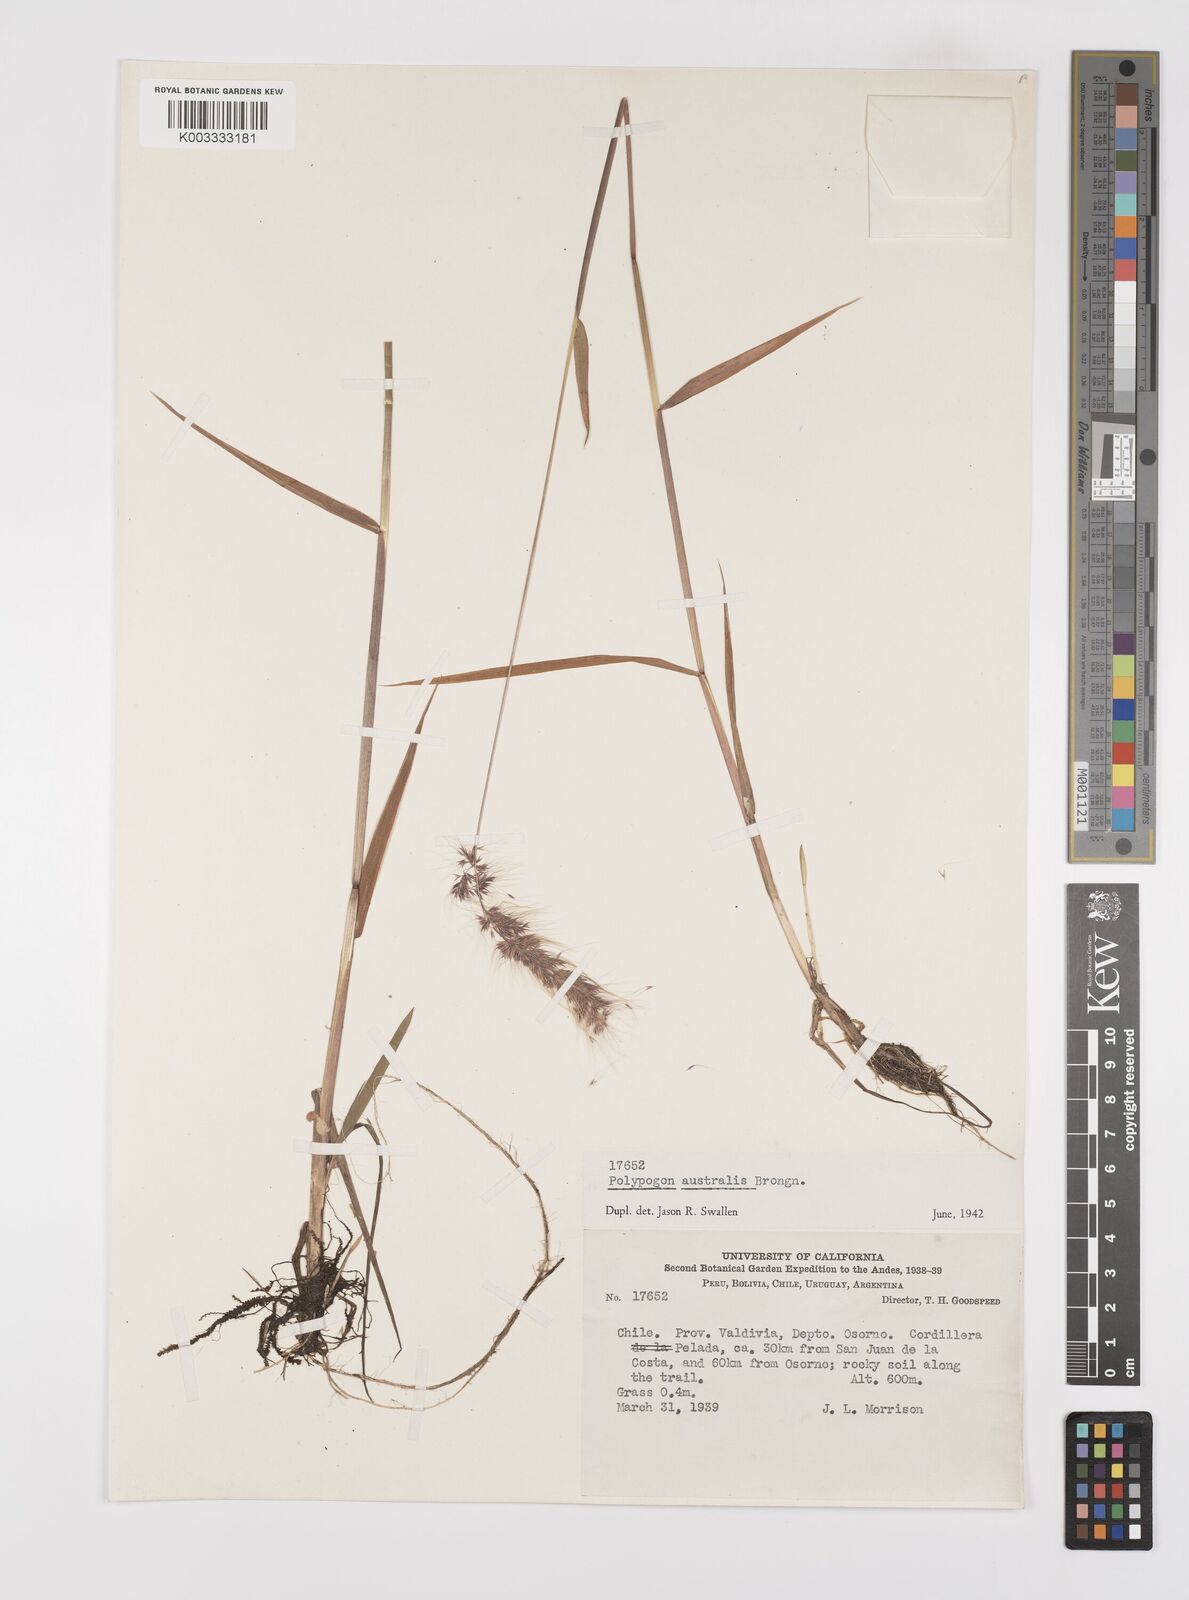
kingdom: Plantae
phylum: Tracheophyta
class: Liliopsida
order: Poales
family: Poaceae
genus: Polypogon
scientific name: Polypogon australis
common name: Chilean rabbitsfoot grass
